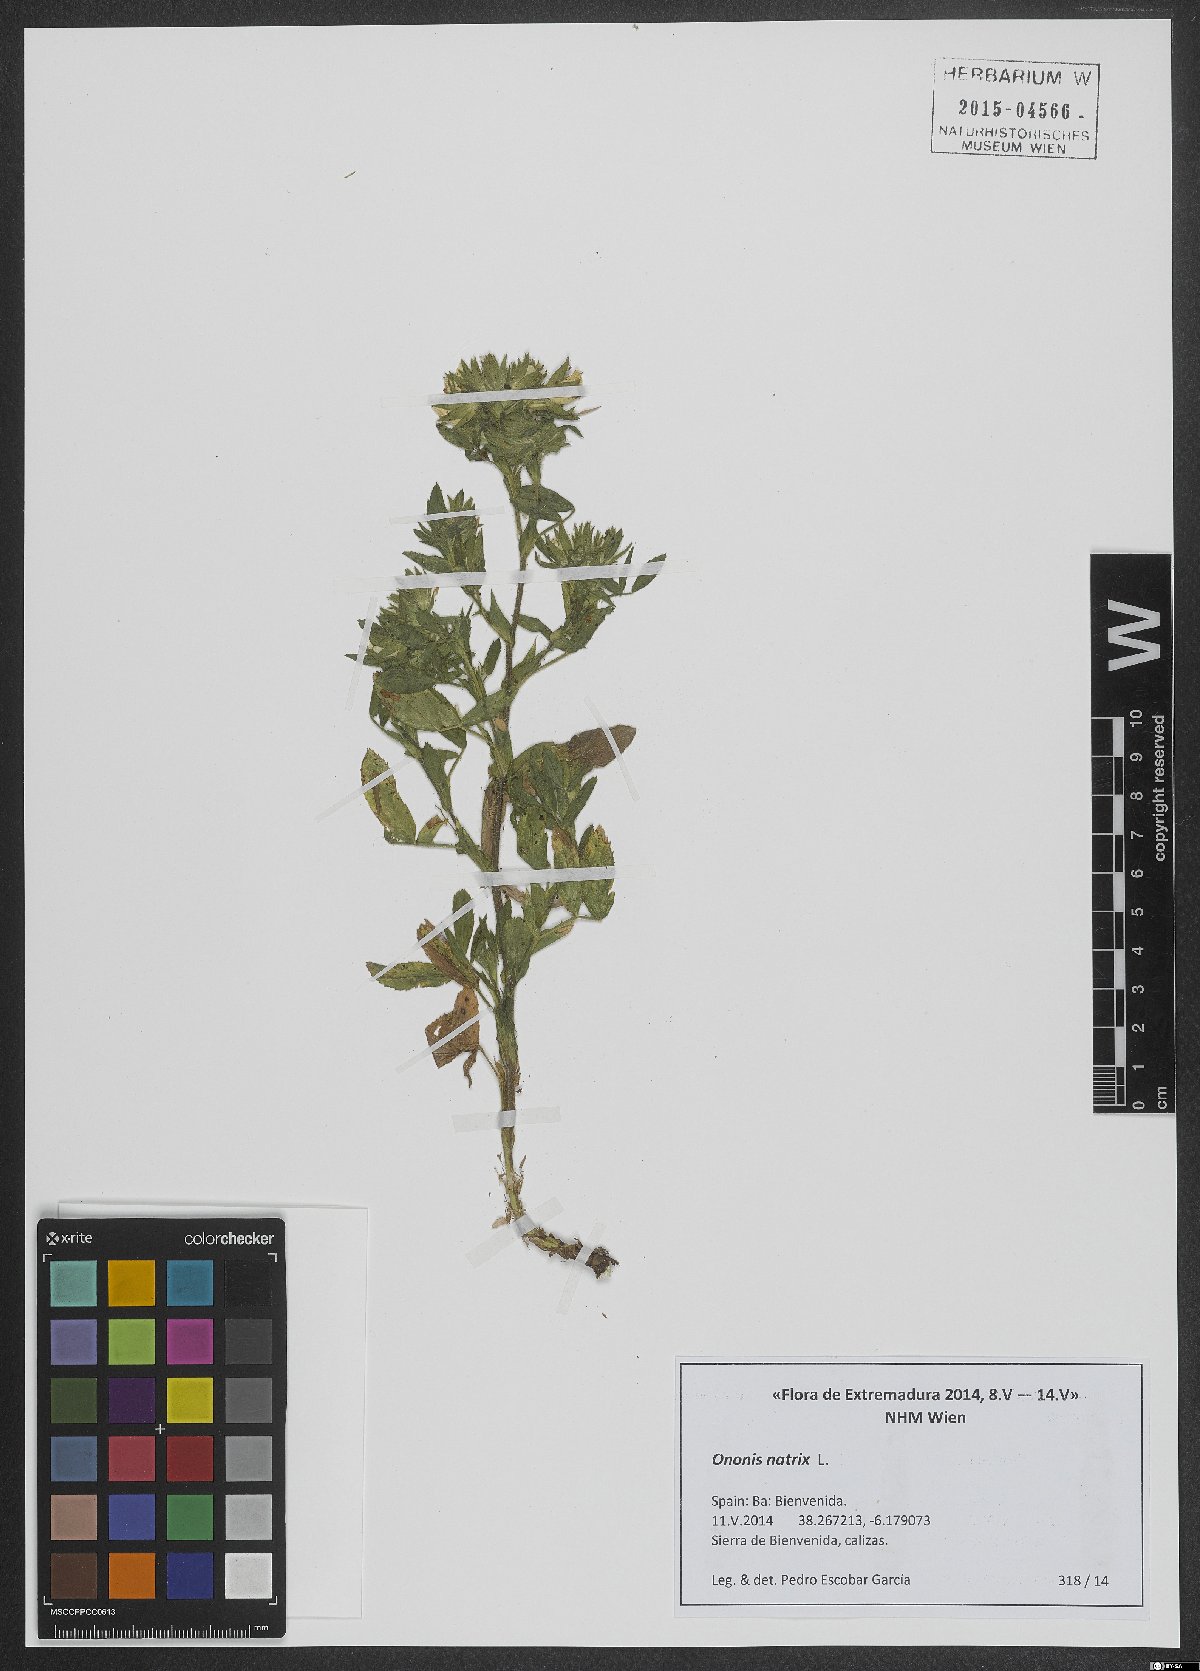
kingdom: Plantae
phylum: Tracheophyta
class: Magnoliopsida
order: Fabales
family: Fabaceae
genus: Ononis
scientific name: Ononis natrix
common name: Yellow restharrow
